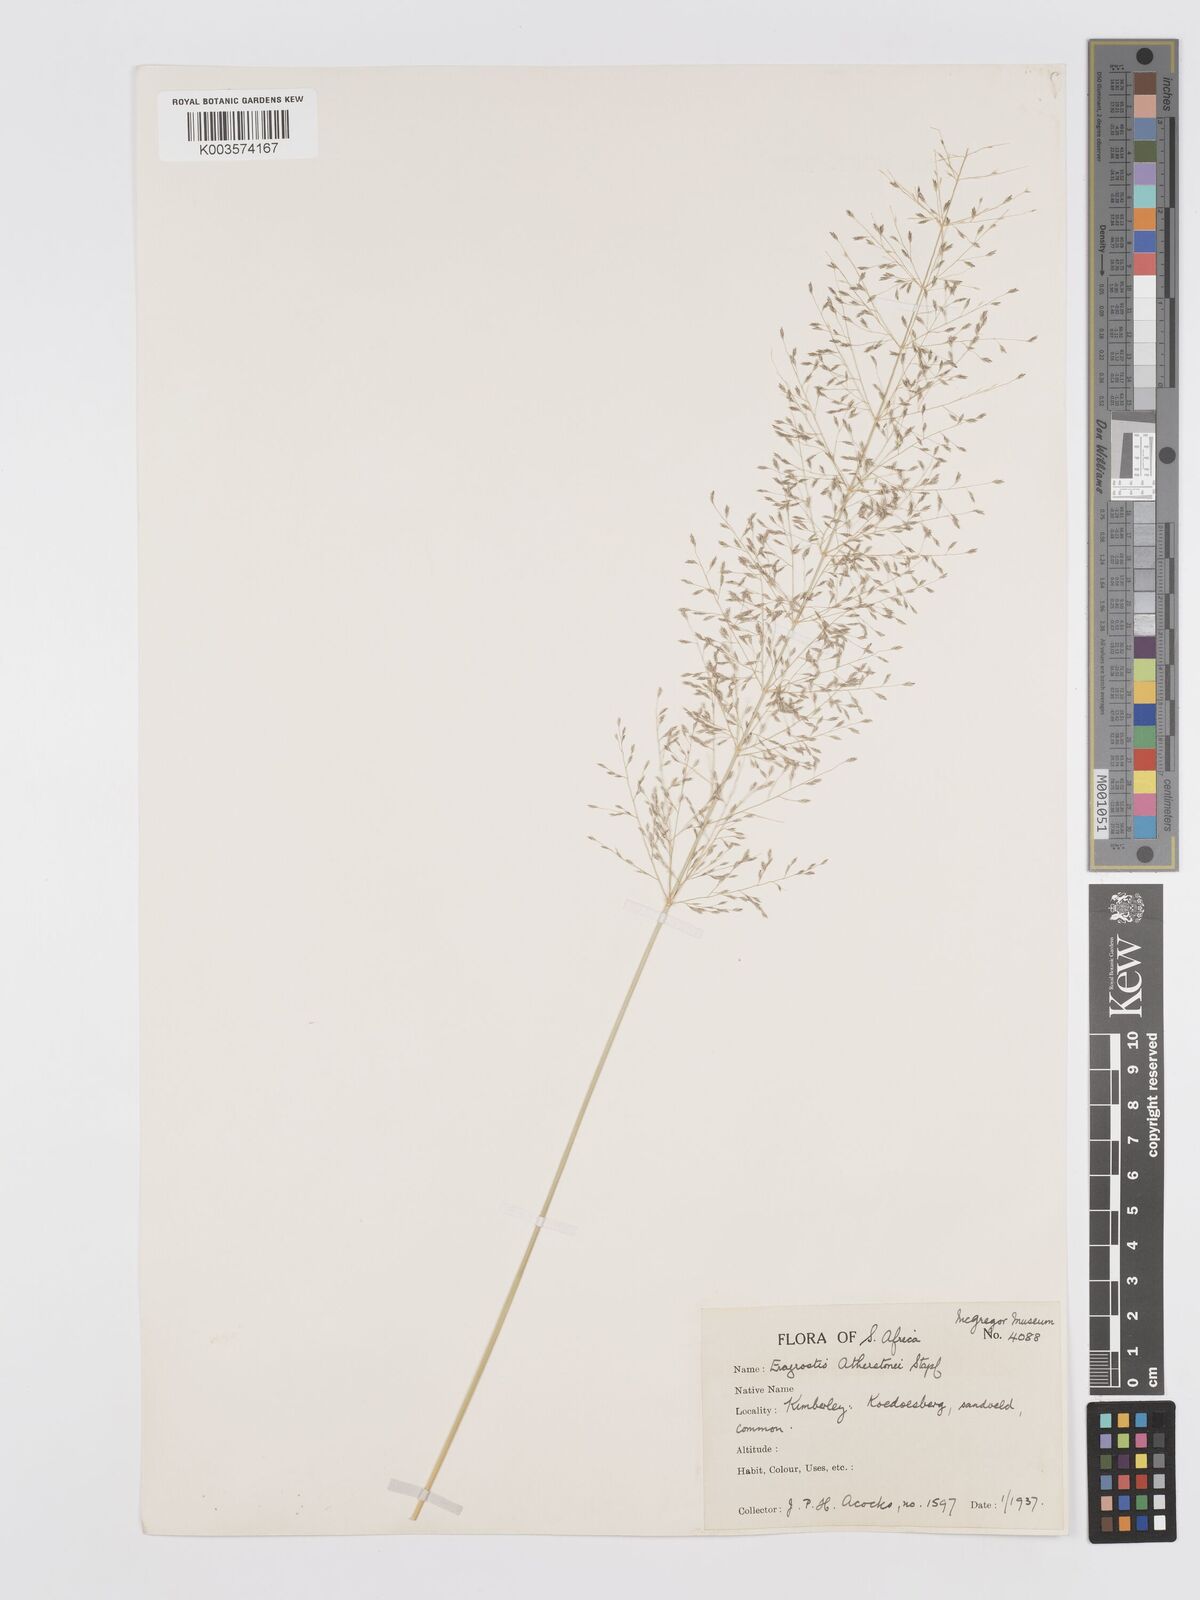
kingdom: Plantae
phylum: Tracheophyta
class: Liliopsida
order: Poales
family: Poaceae
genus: Eragrostis
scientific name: Eragrostis cylindriflora
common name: Cylinderflower lovegrass
